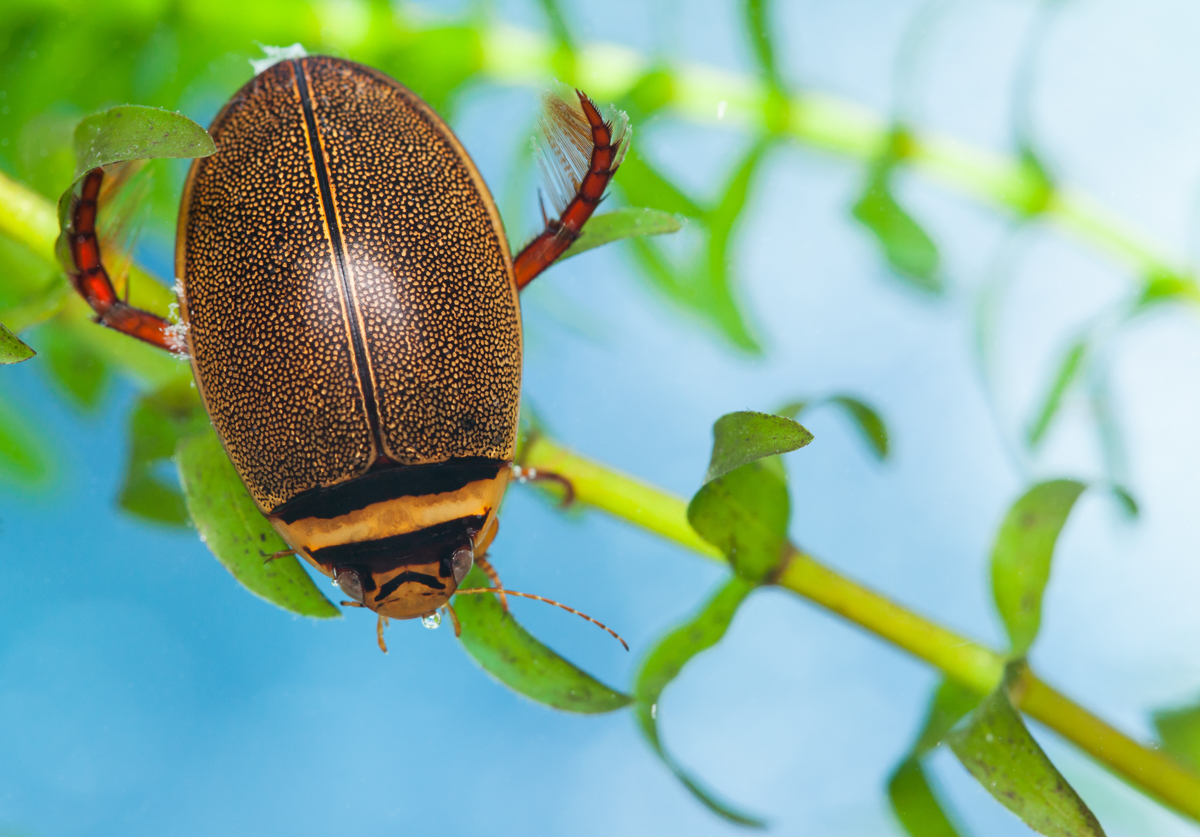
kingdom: Animalia
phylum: Arthropoda
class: Insecta
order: Coleoptera
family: Dytiscidae
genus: Graphoderus
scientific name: Graphoderus cinereus
